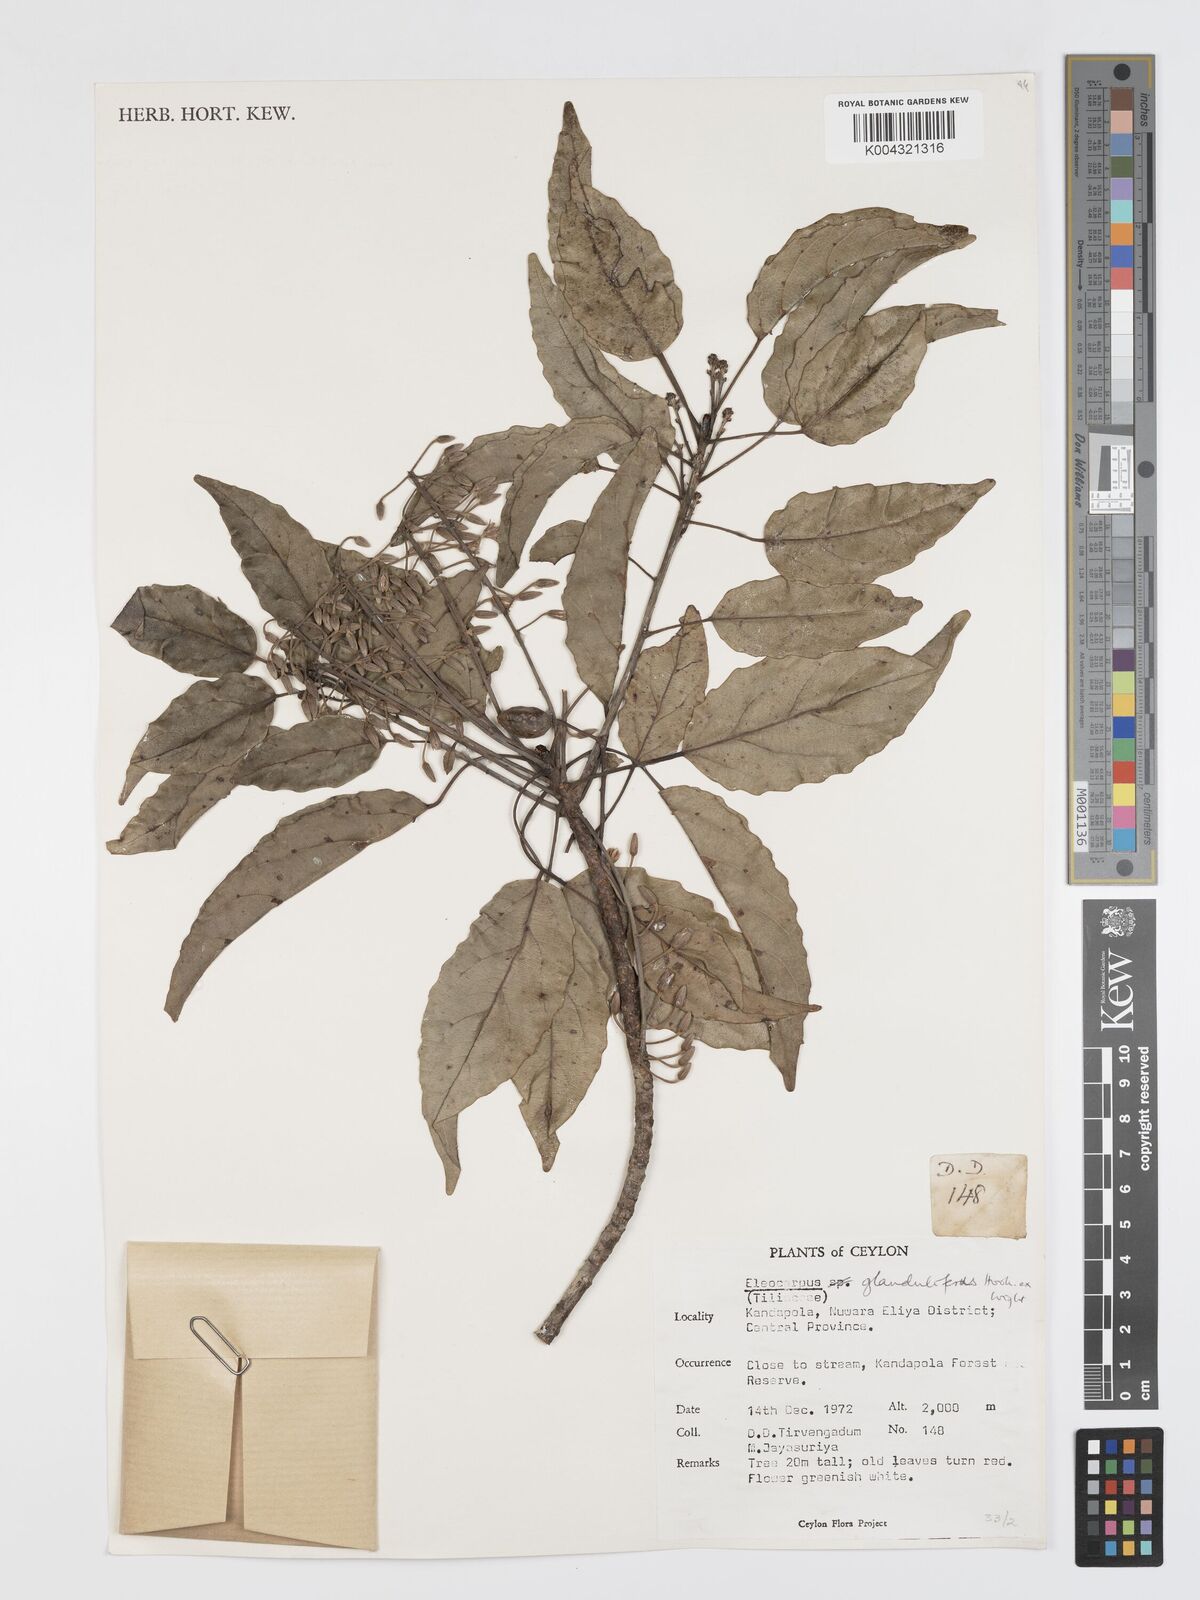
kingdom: Plantae
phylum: Tracheophyta
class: Magnoliopsida
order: Oxalidales
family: Elaeocarpaceae
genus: Elaeocarpus
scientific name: Elaeocarpus glandulifer
